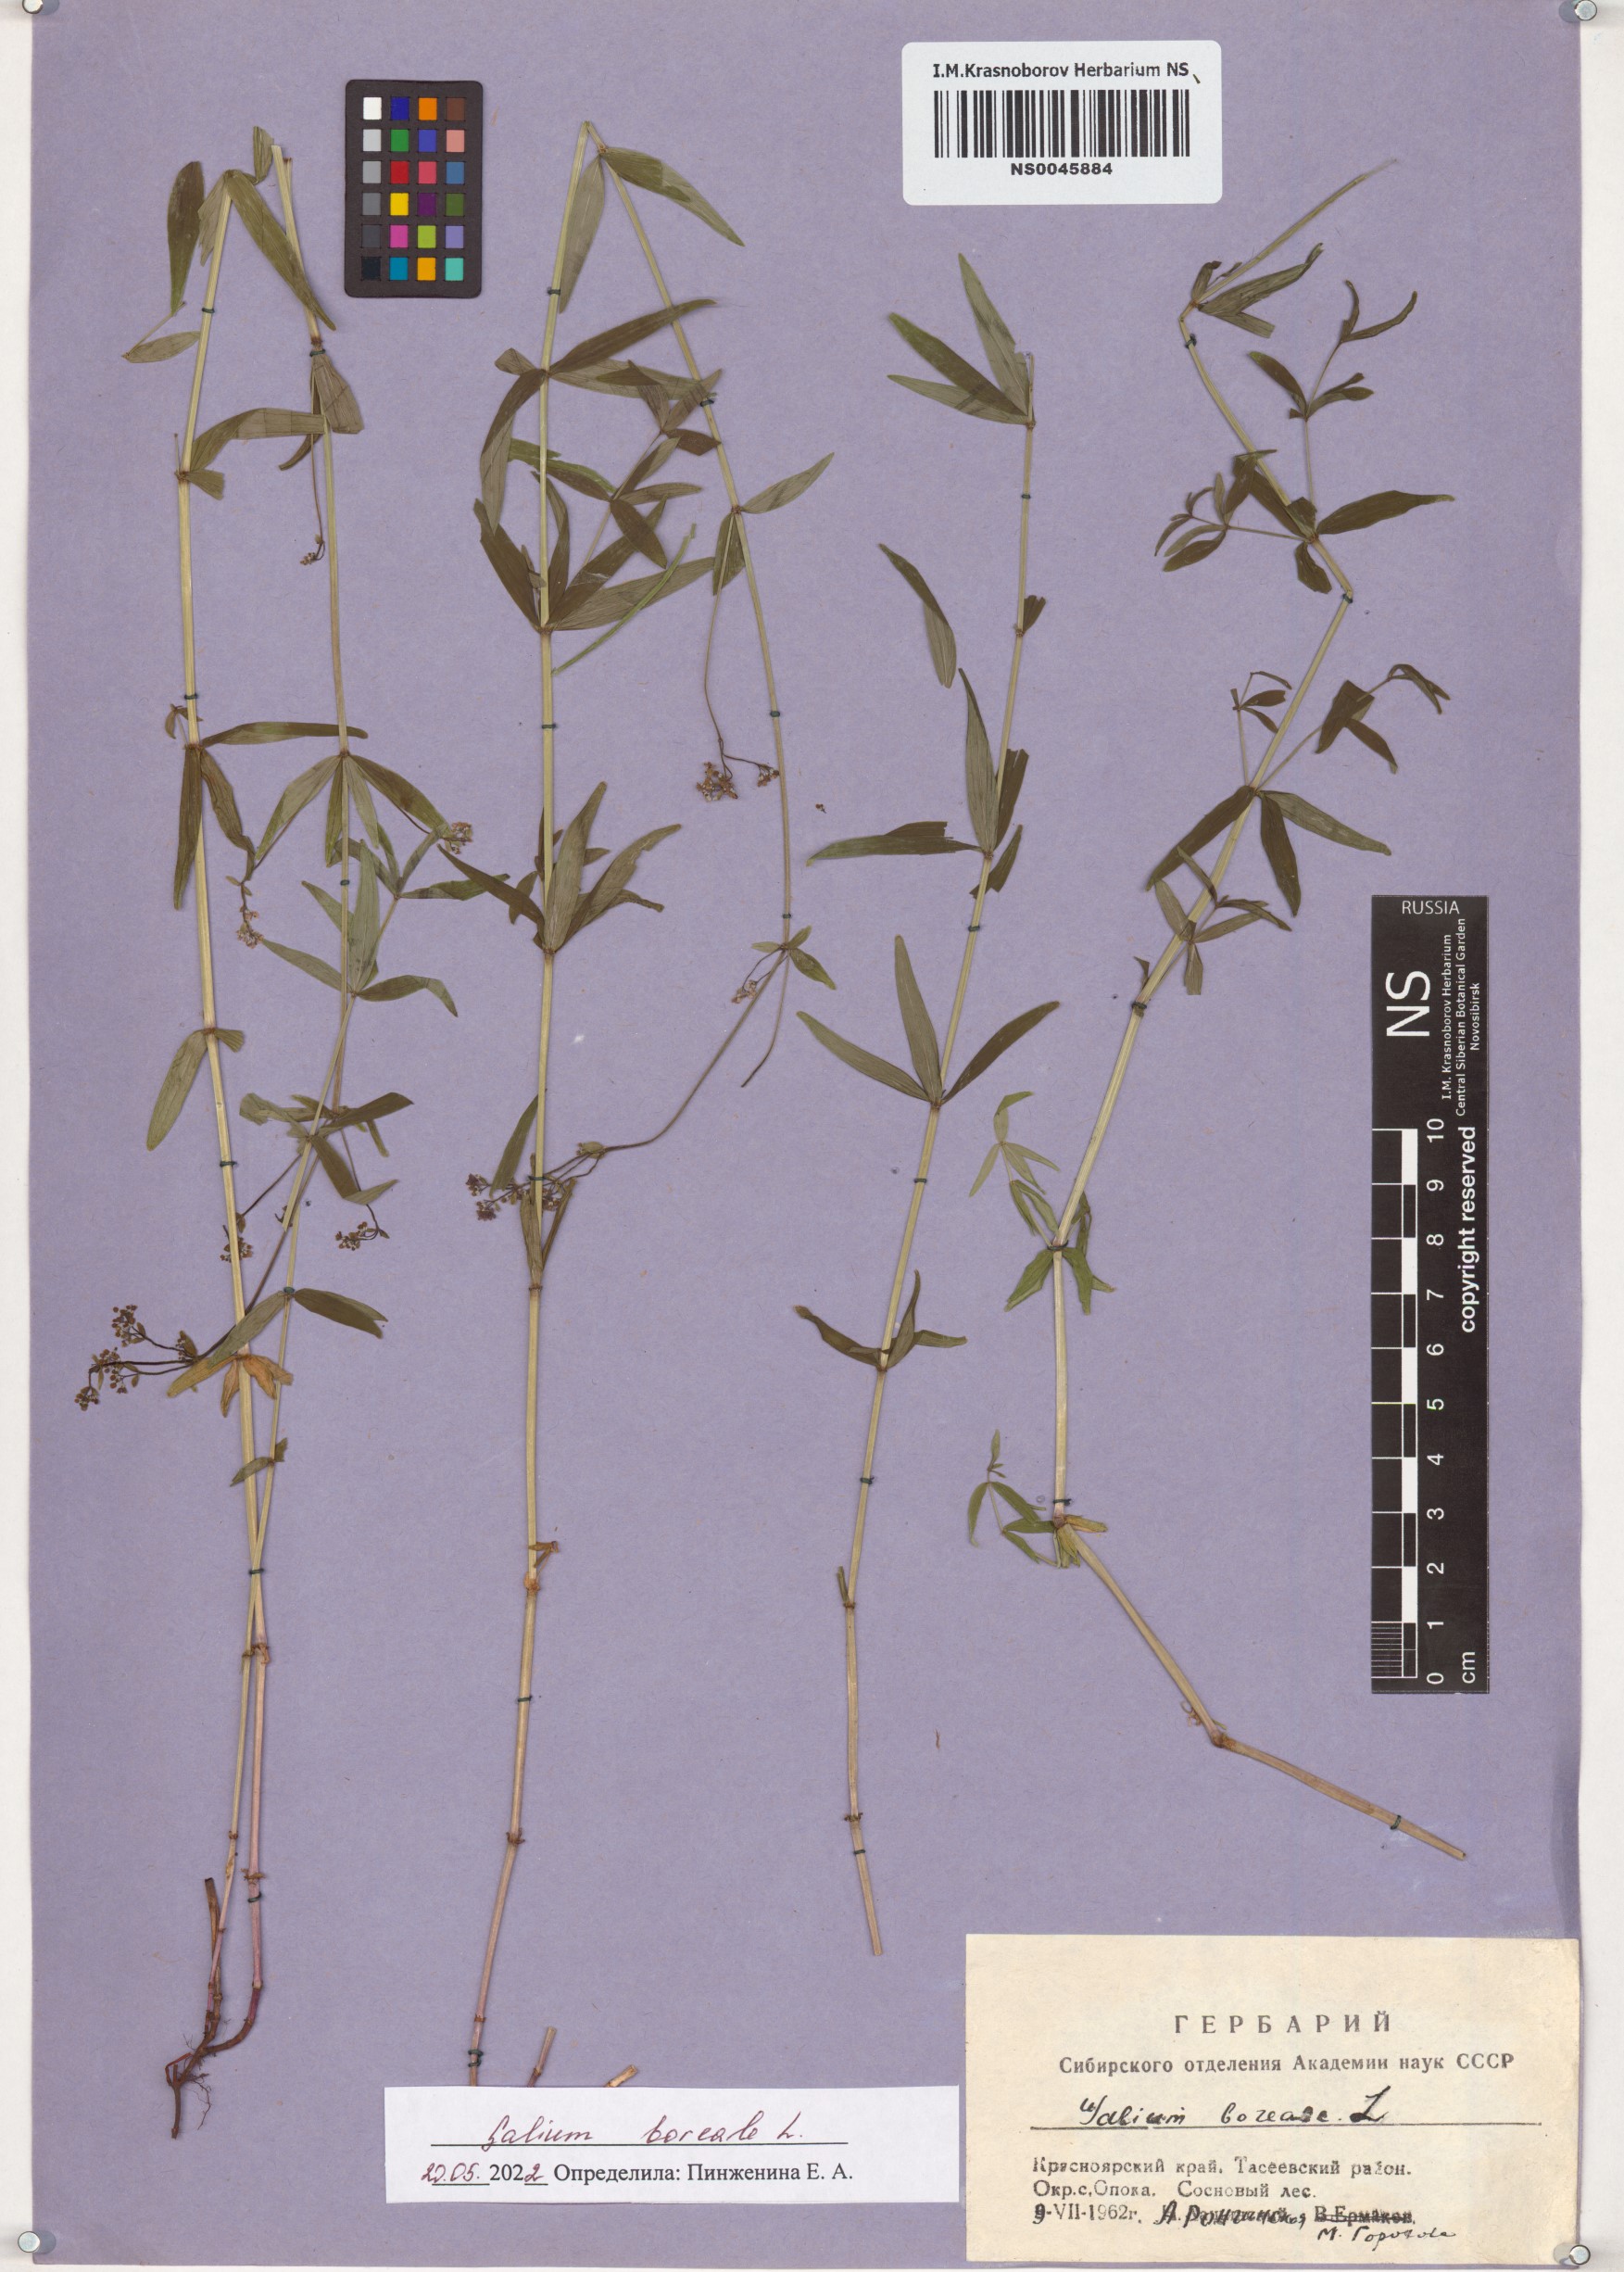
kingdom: Plantae
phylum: Tracheophyta
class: Magnoliopsida
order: Gentianales
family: Rubiaceae
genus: Galium
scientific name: Galium boreale
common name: Northern bedstraw
